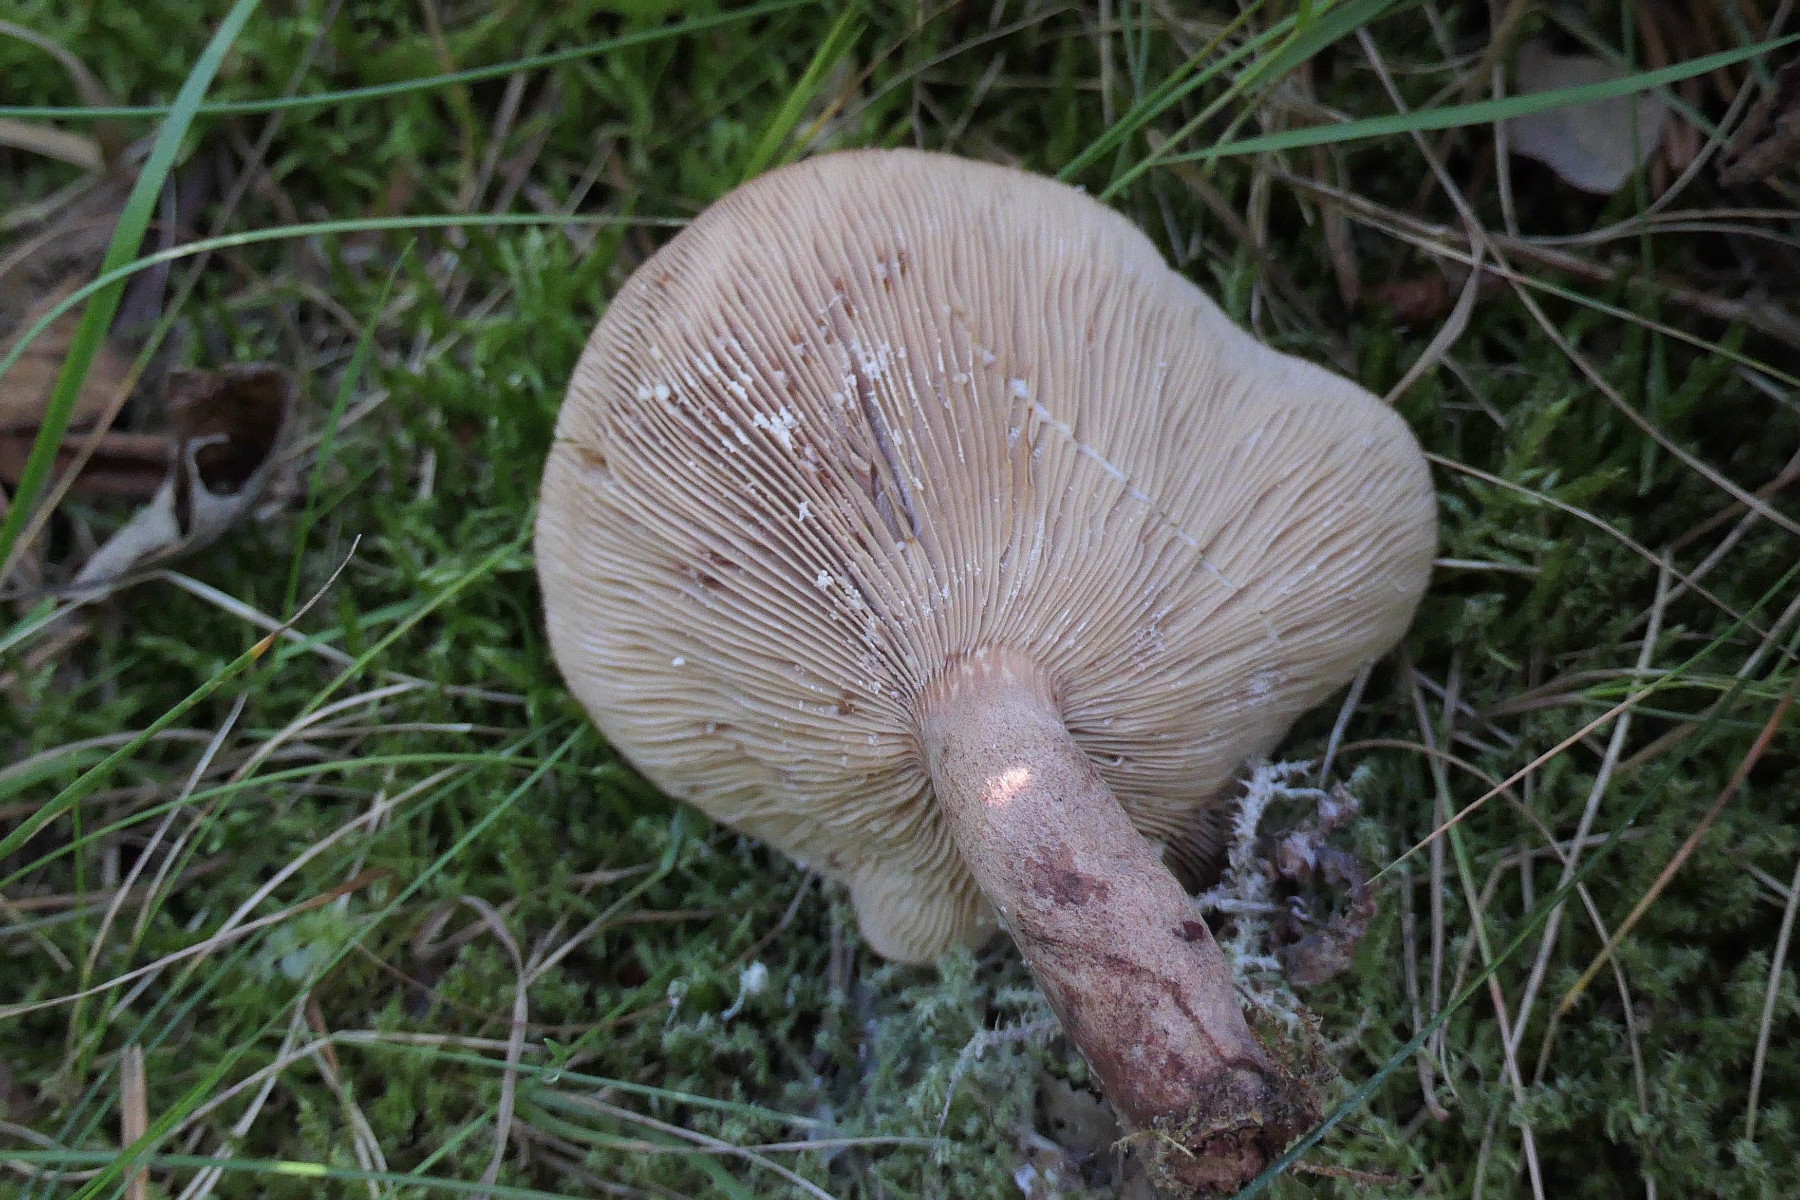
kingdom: Fungi
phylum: Basidiomycota
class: Agaricomycetes
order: Russulales
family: Russulaceae
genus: Lactarius
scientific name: Lactarius quietus
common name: ege-mælkehat
